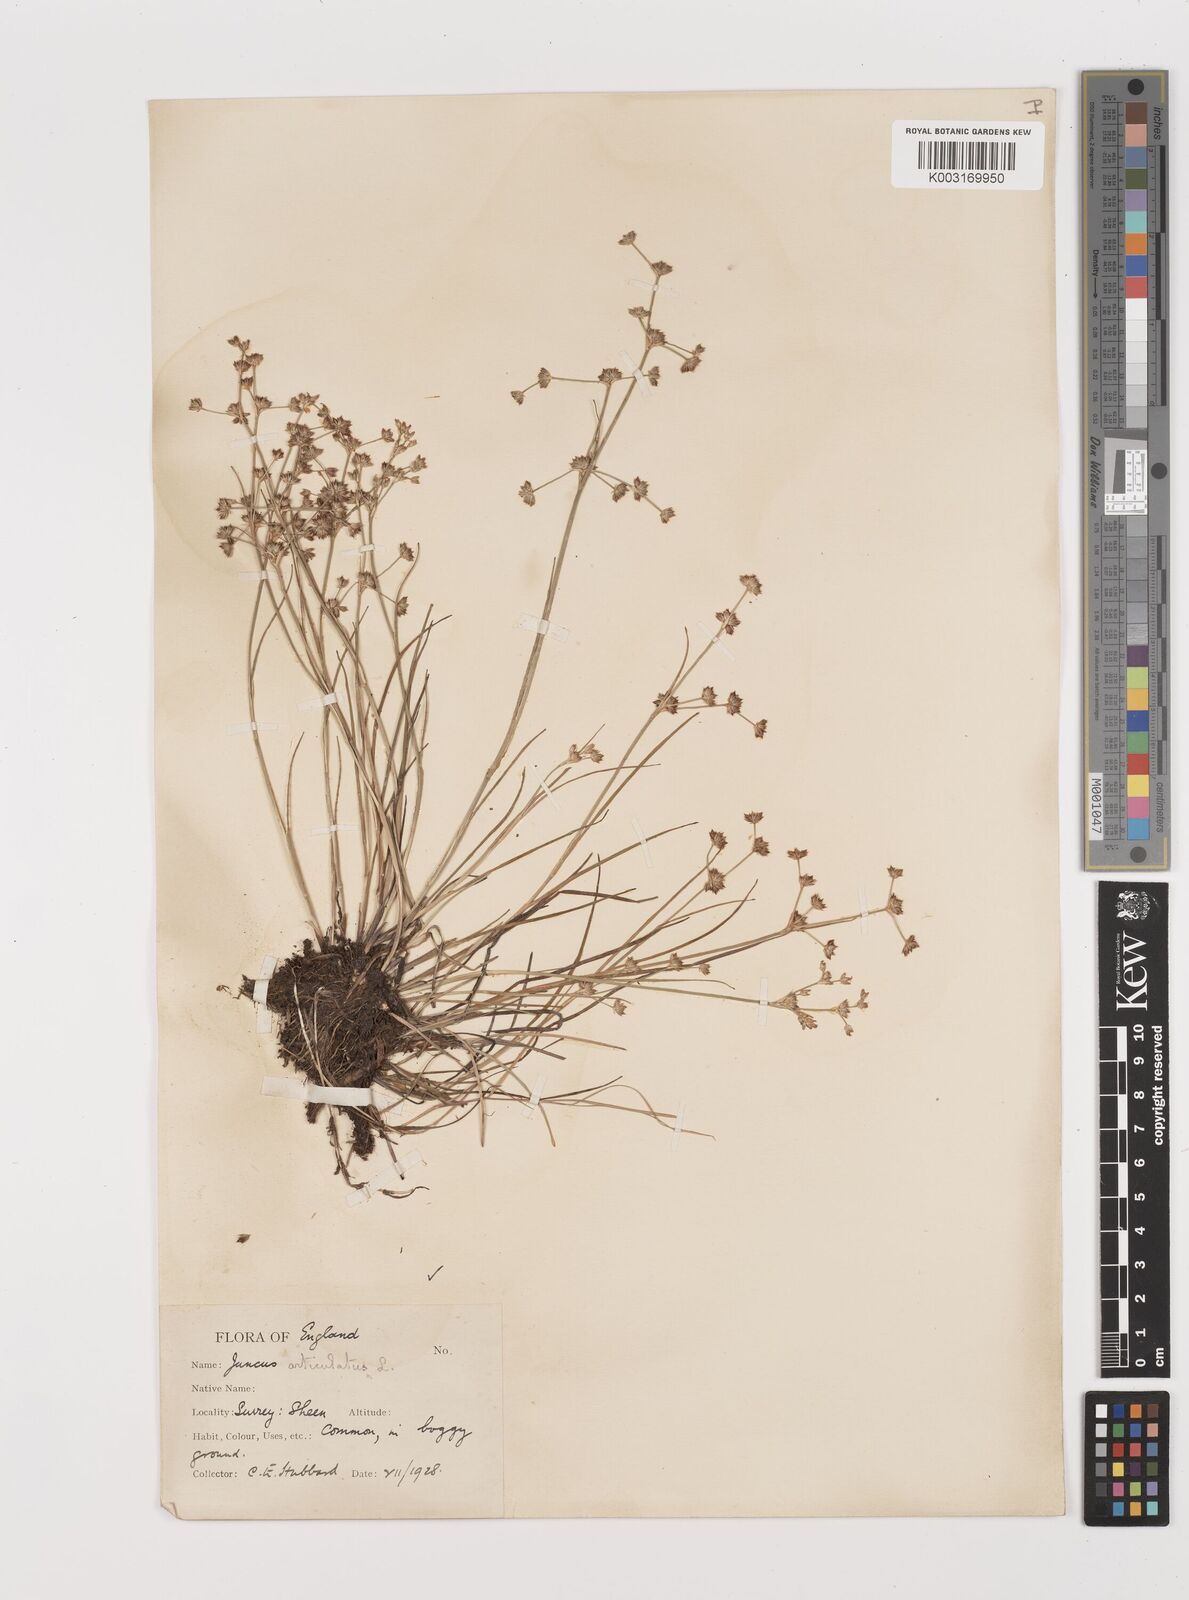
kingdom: Plantae
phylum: Tracheophyta
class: Liliopsida
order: Poales
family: Juncaceae
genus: Juncus
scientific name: Juncus articulatus
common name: Jointed rush
